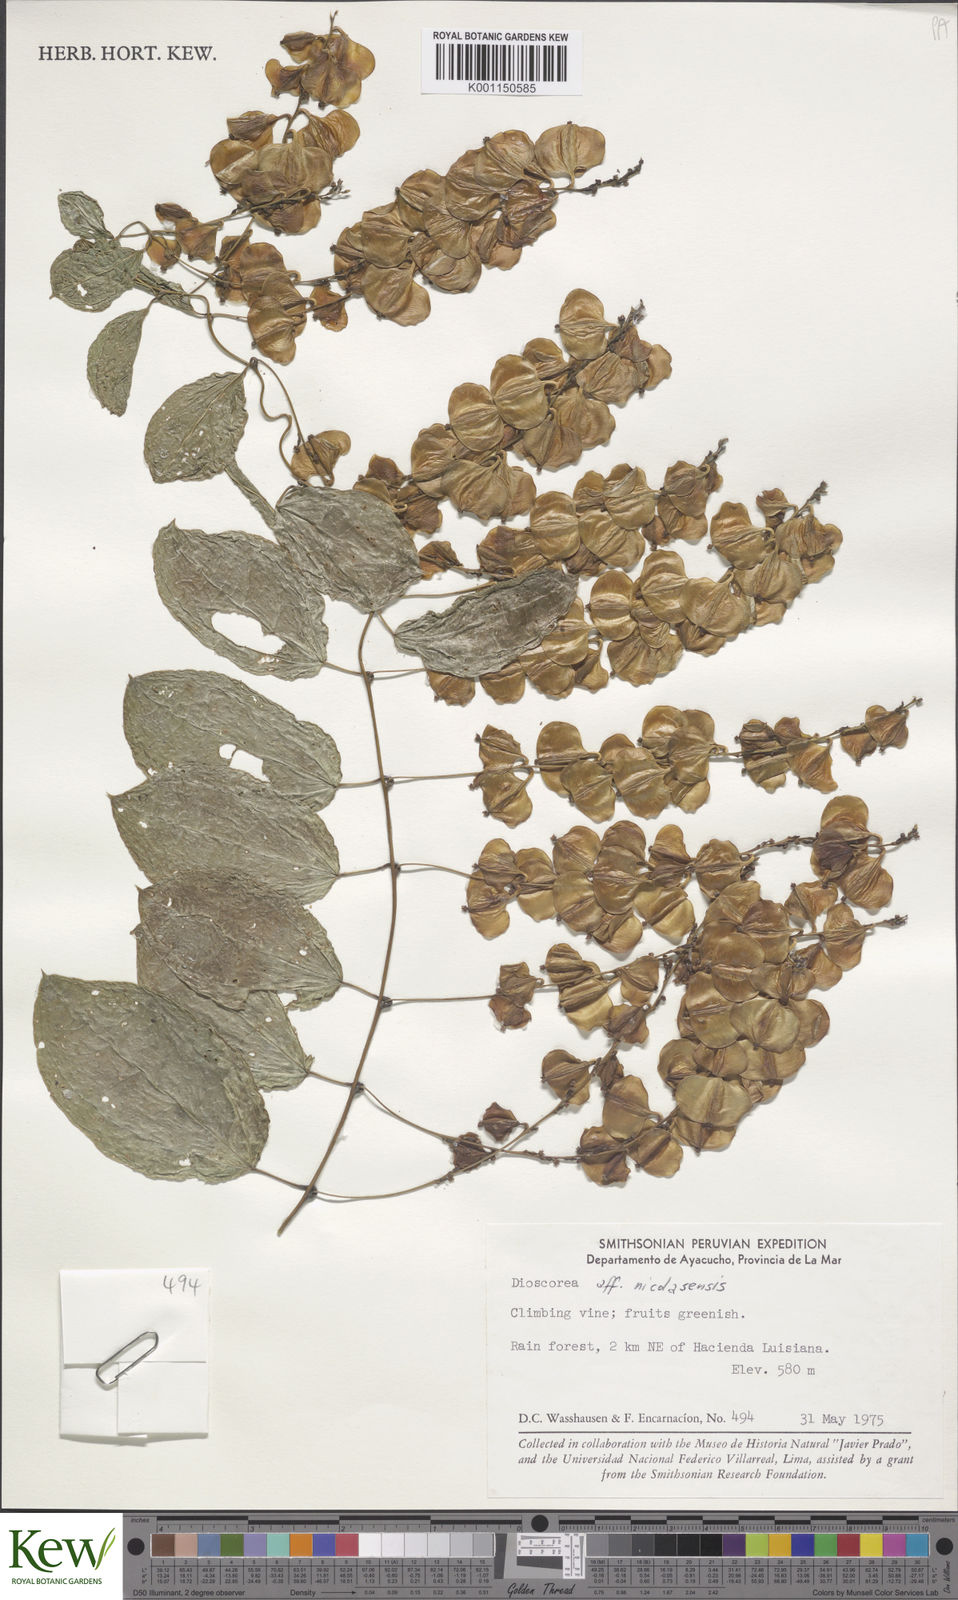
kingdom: Plantae
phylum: Tracheophyta
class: Liliopsida
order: Dioscoreales
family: Dioscoreaceae
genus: Dioscorea
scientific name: Dioscorea nicolasensis
